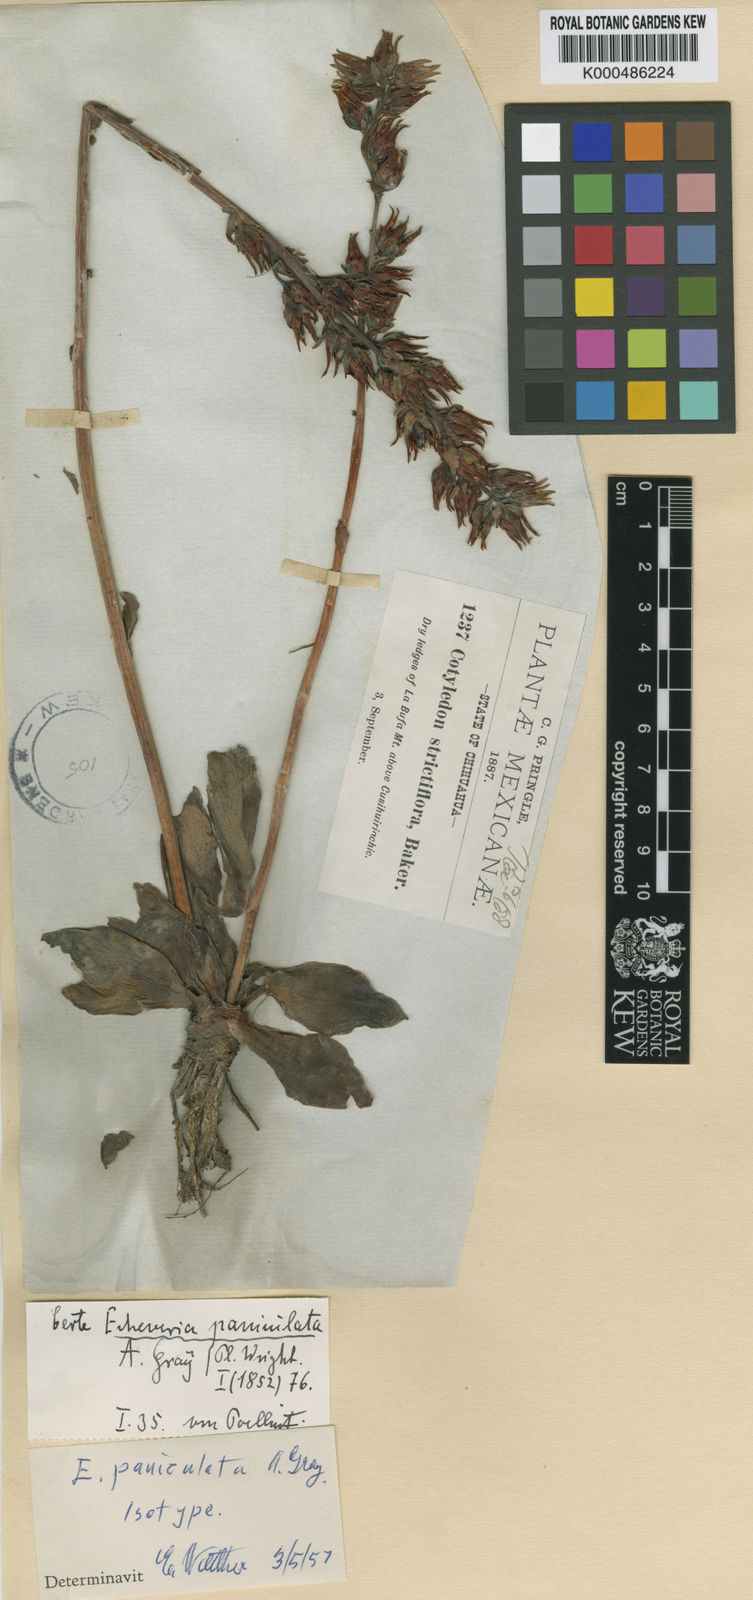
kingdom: Plantae
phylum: Tracheophyta
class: Magnoliopsida
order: Saxifragales
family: Crassulaceae
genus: Echeveria
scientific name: Echeveria paniculata
